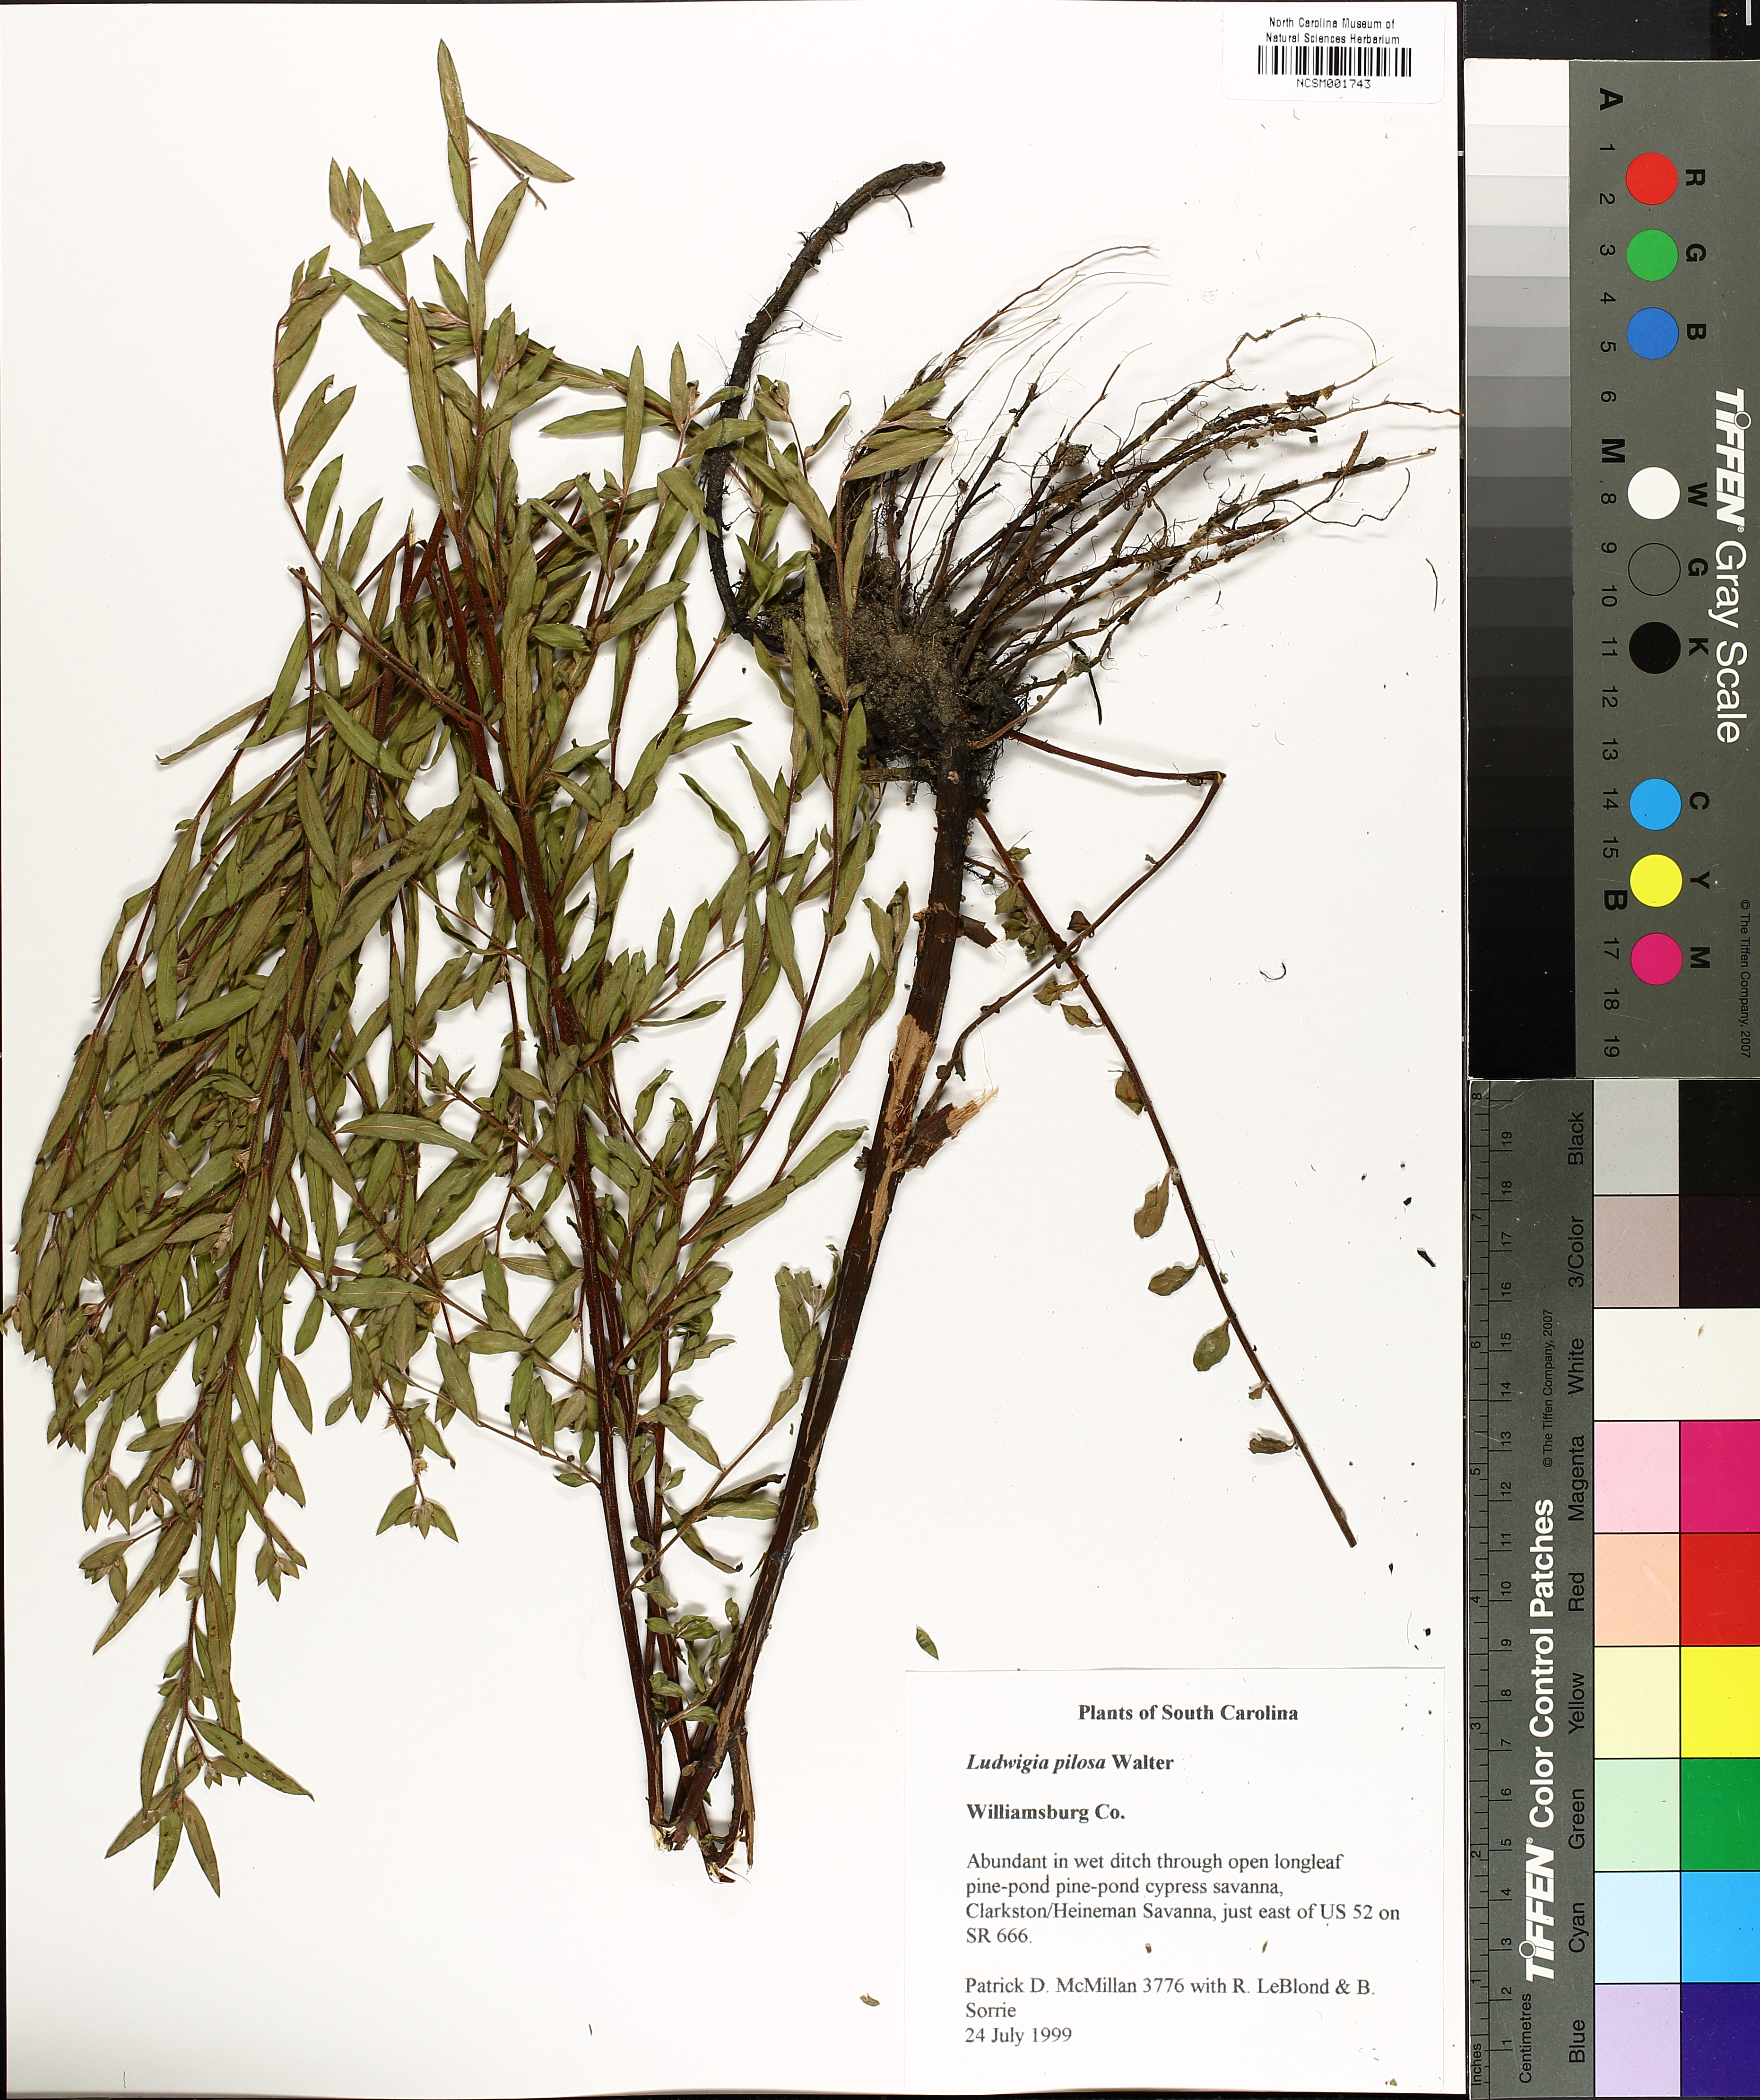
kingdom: Plantae
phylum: Tracheophyta
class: Magnoliopsida
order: Myrtales
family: Onagraceae
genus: Ludwigia
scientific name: Ludwigia pilosa
